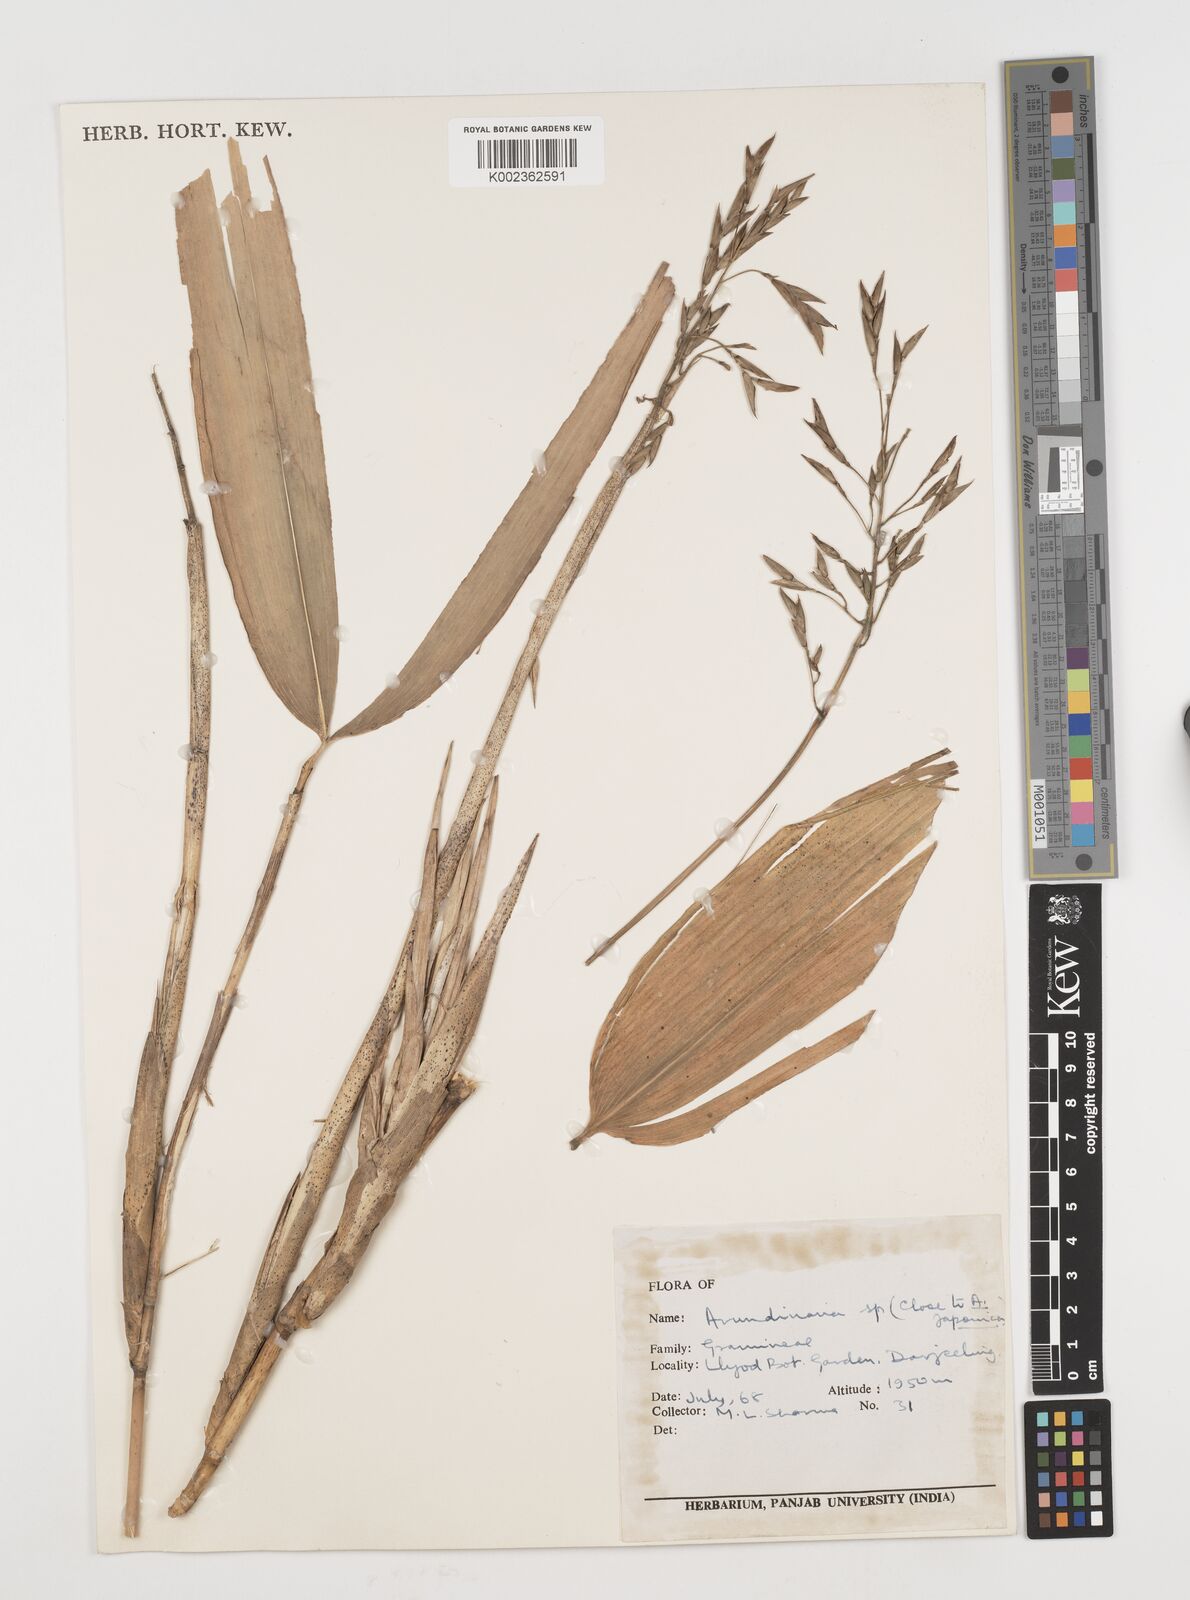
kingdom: Plantae
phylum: Tracheophyta
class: Liliopsida
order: Poales
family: Poaceae
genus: Pseudosasa
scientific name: Pseudosasa japonica
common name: Arrow bamboo
